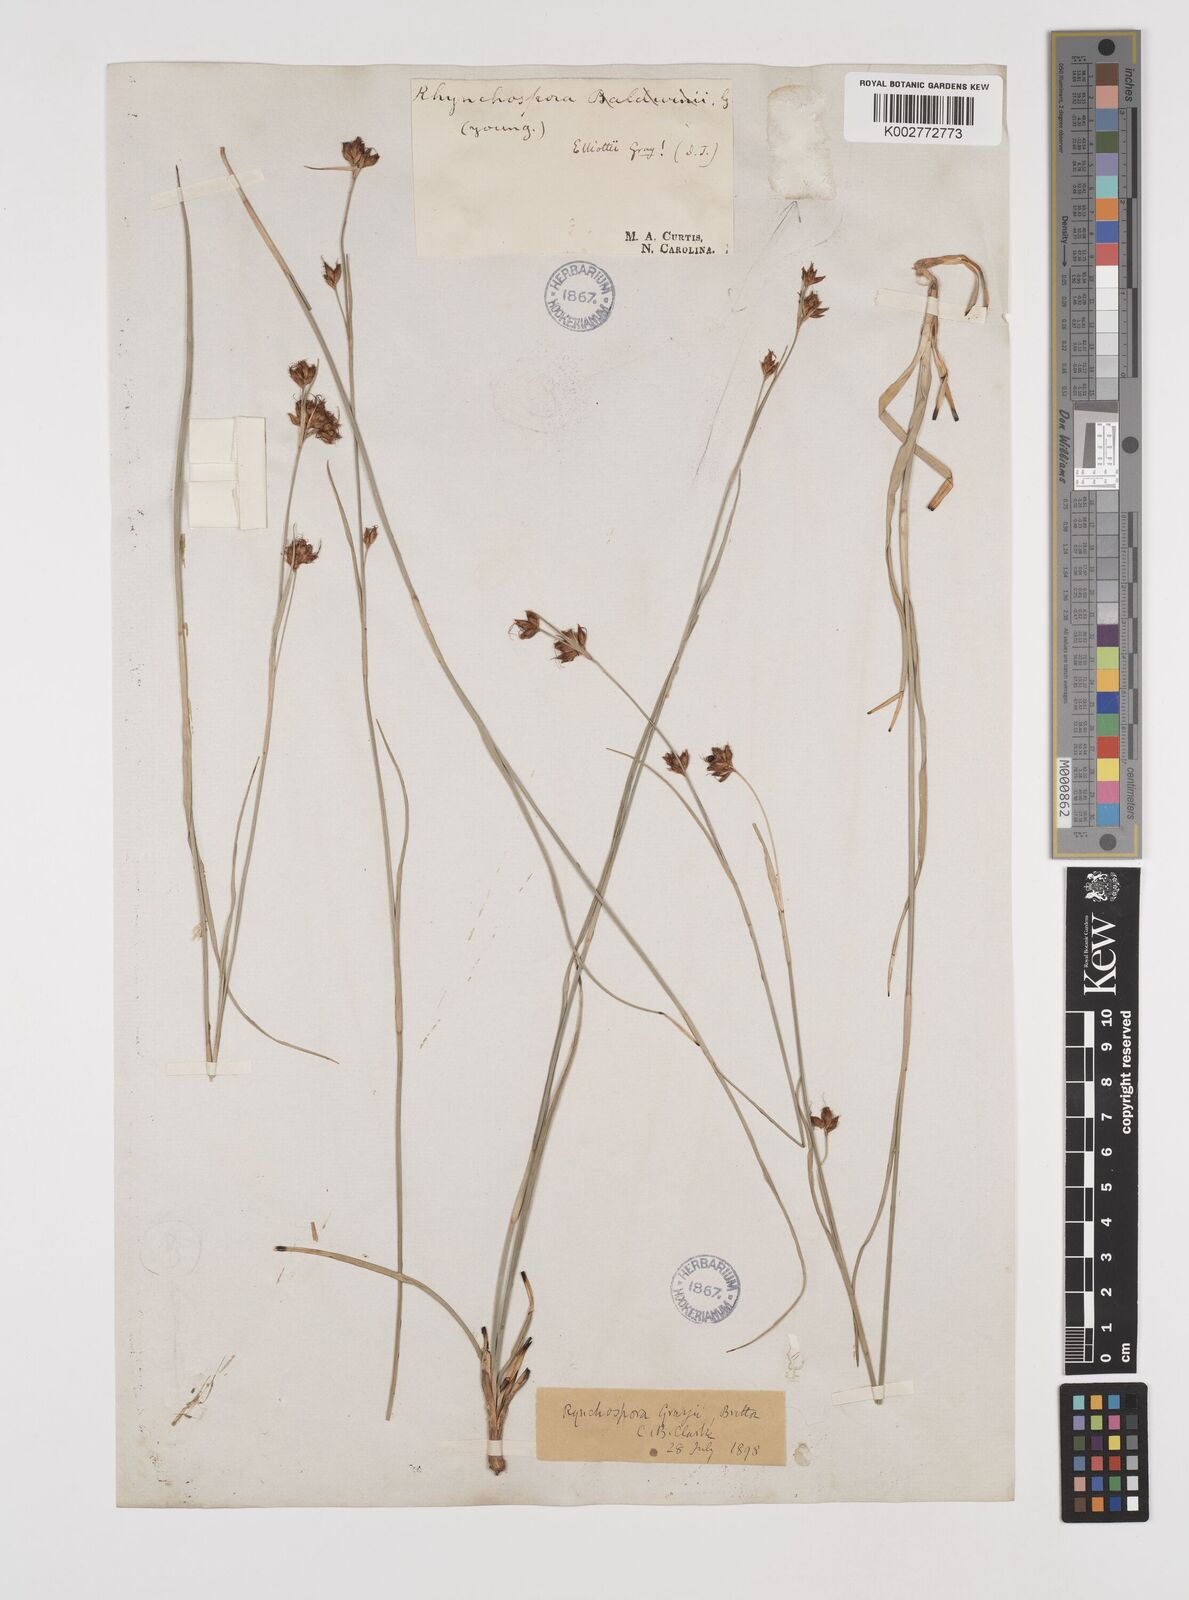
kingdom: Plantae
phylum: Tracheophyta
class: Liliopsida
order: Poales
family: Cyperaceae
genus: Rhynchospora
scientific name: Rhynchospora grayi
